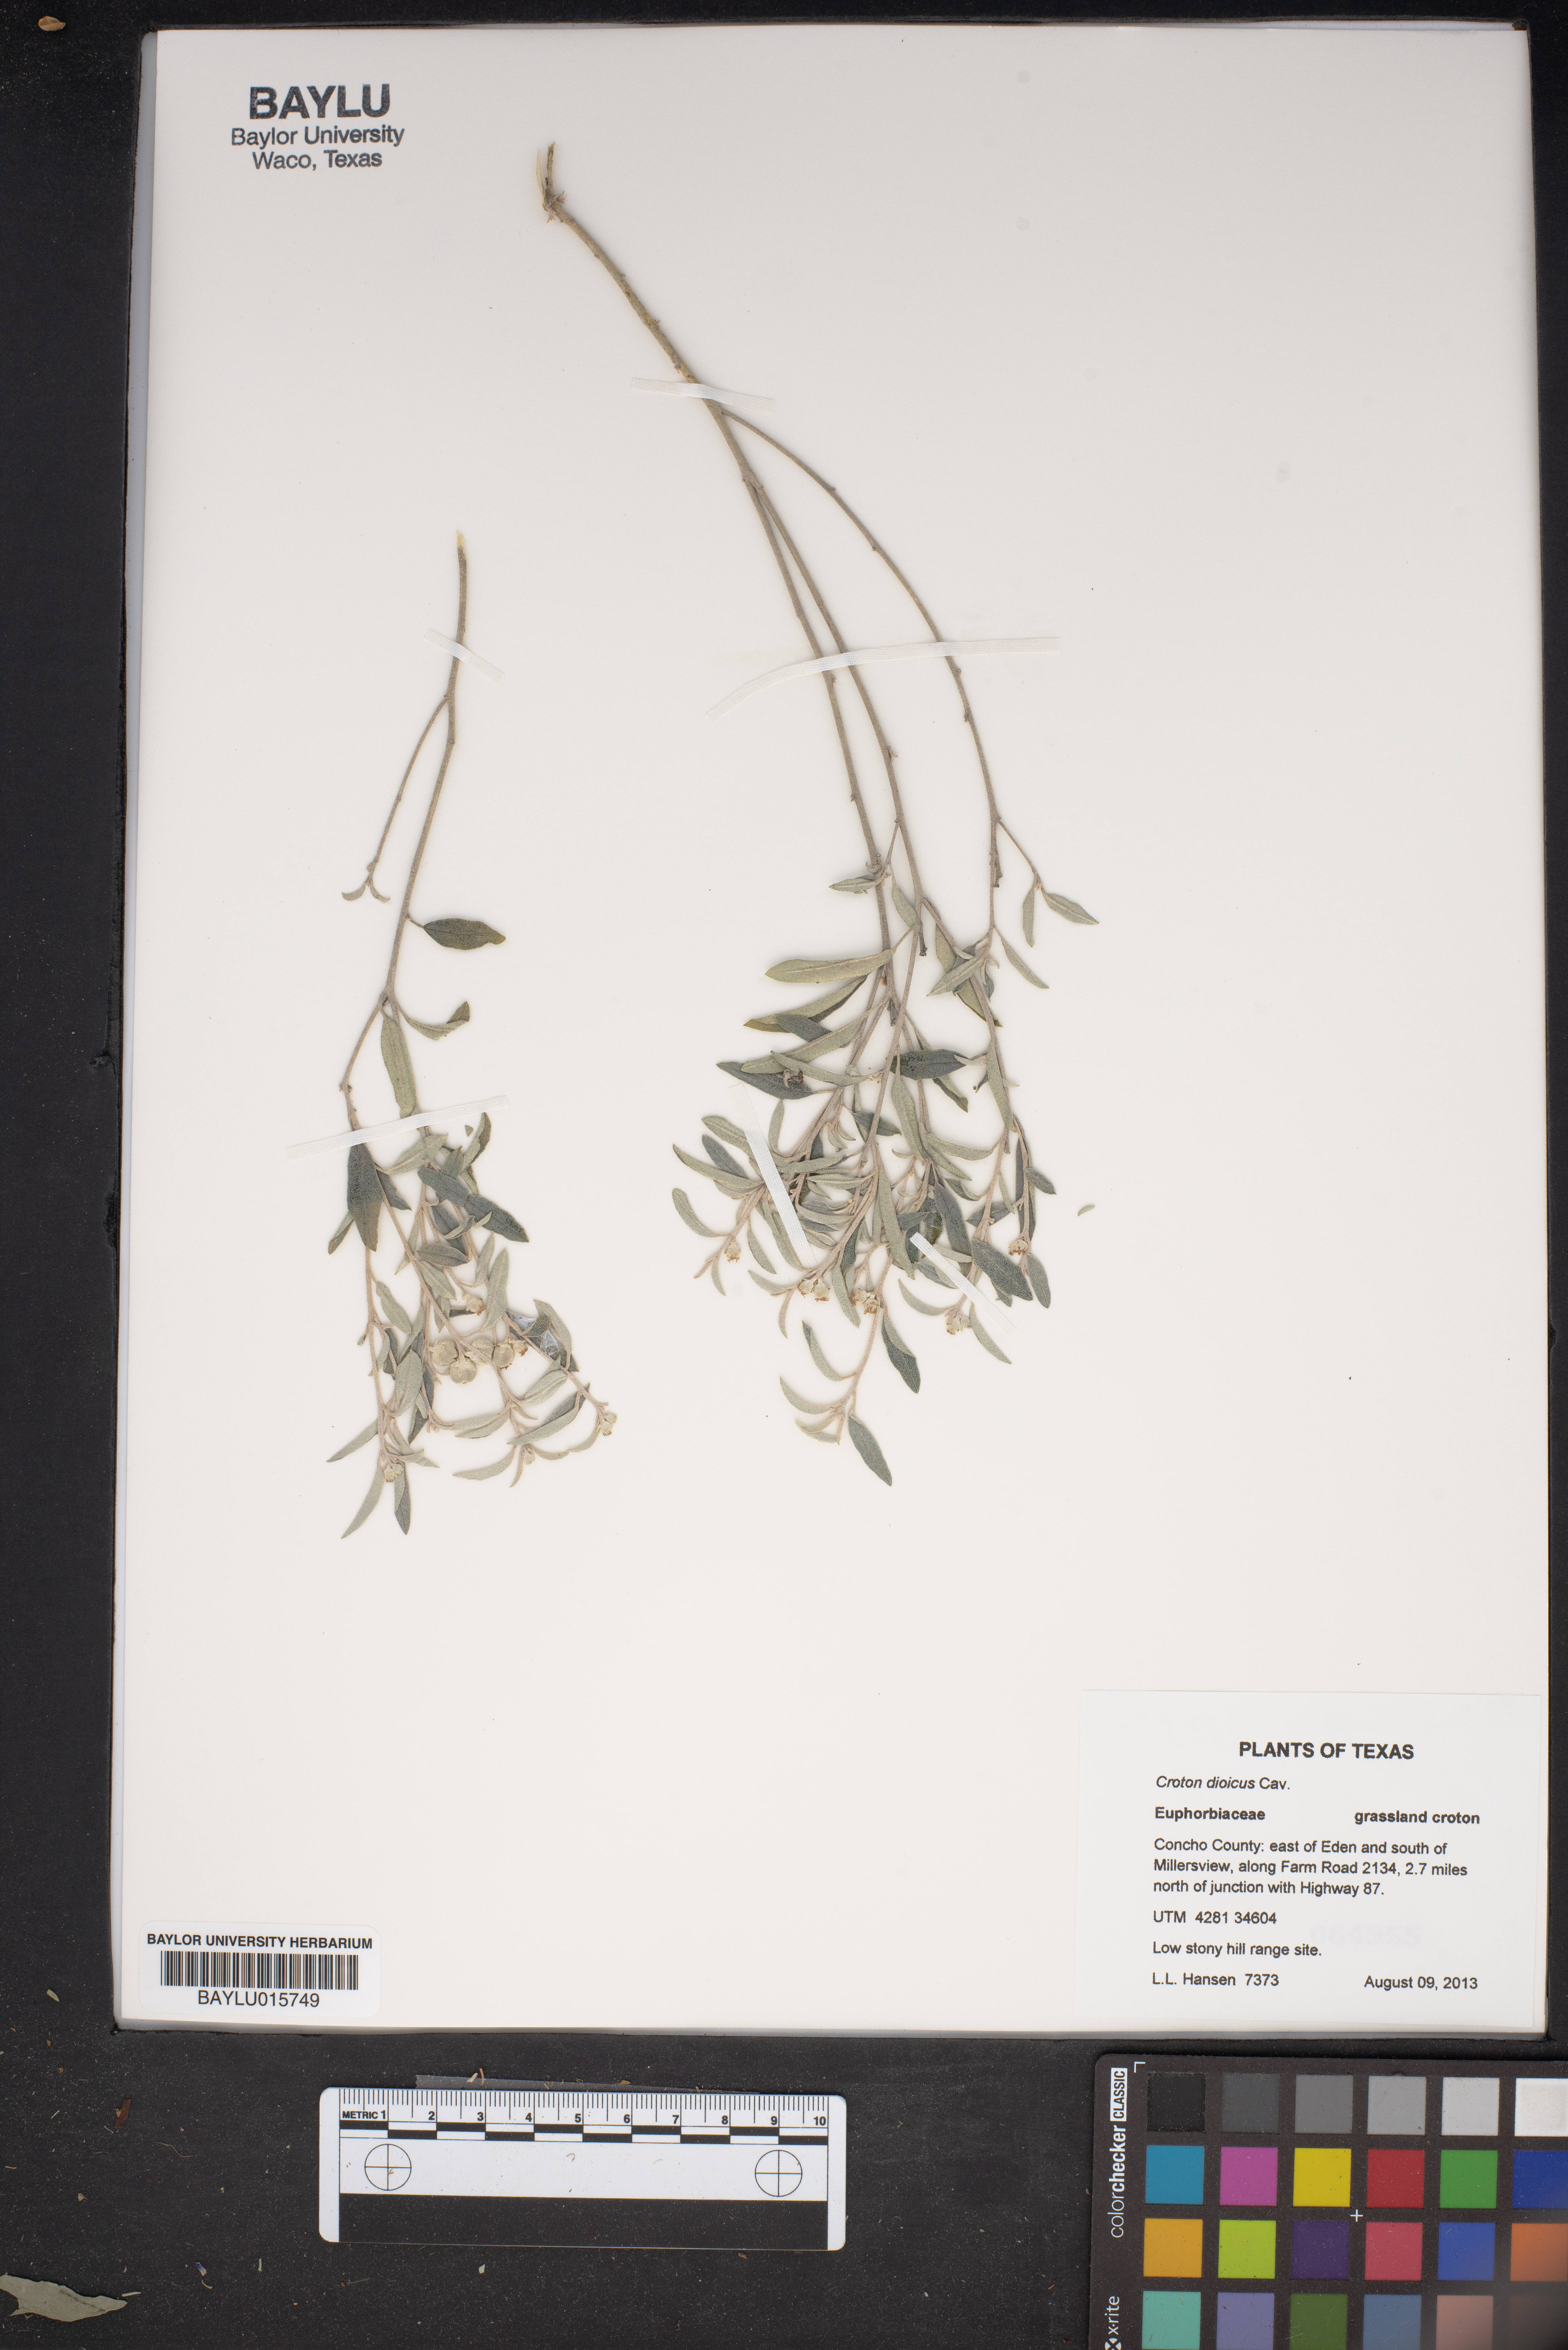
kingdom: Plantae
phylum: Tracheophyta
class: Magnoliopsida
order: Malpighiales
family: Euphorbiaceae
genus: Croton
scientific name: Croton dioicus
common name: Grassland croton
